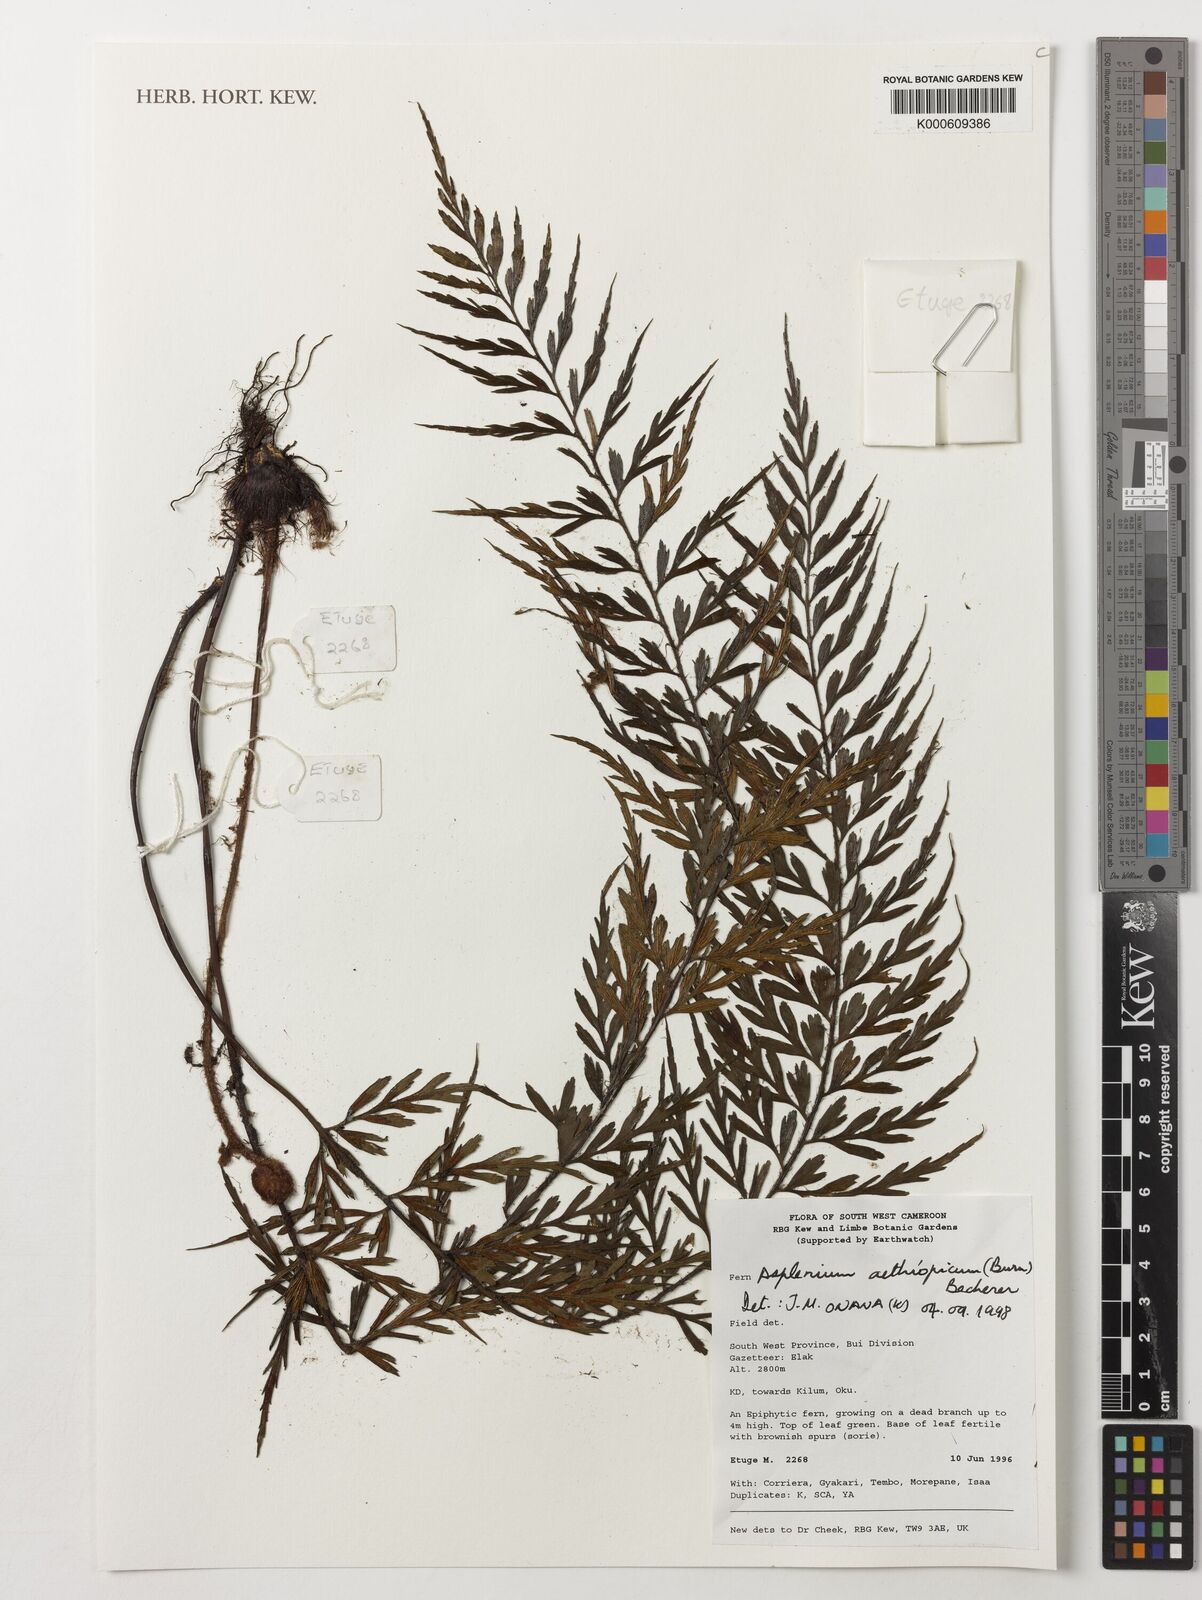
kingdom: Plantae
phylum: Tracheophyta
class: Polypodiopsida
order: Polypodiales
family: Aspleniaceae
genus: Asplenium
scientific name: Asplenium aethiopicum
